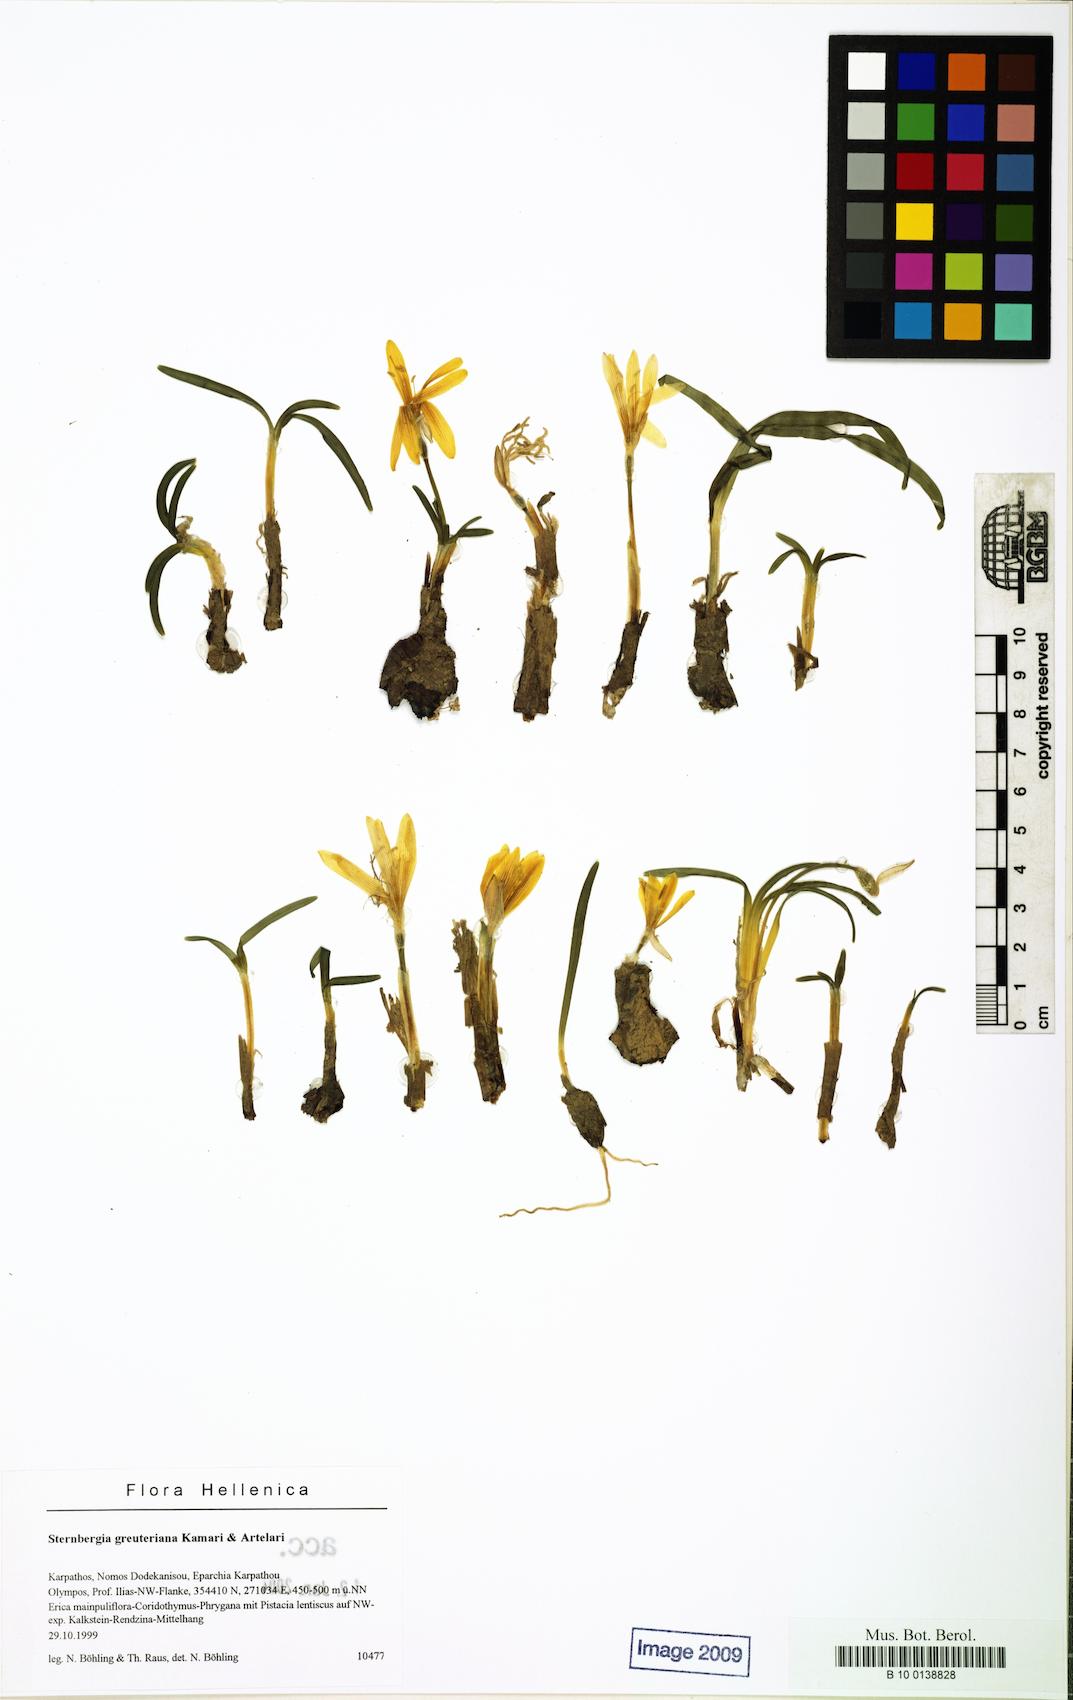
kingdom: Plantae
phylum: Tracheophyta
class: Liliopsida
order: Asparagales
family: Amaryllidaceae
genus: Sternbergia
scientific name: Sternbergia lutea
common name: Winter daffodil
